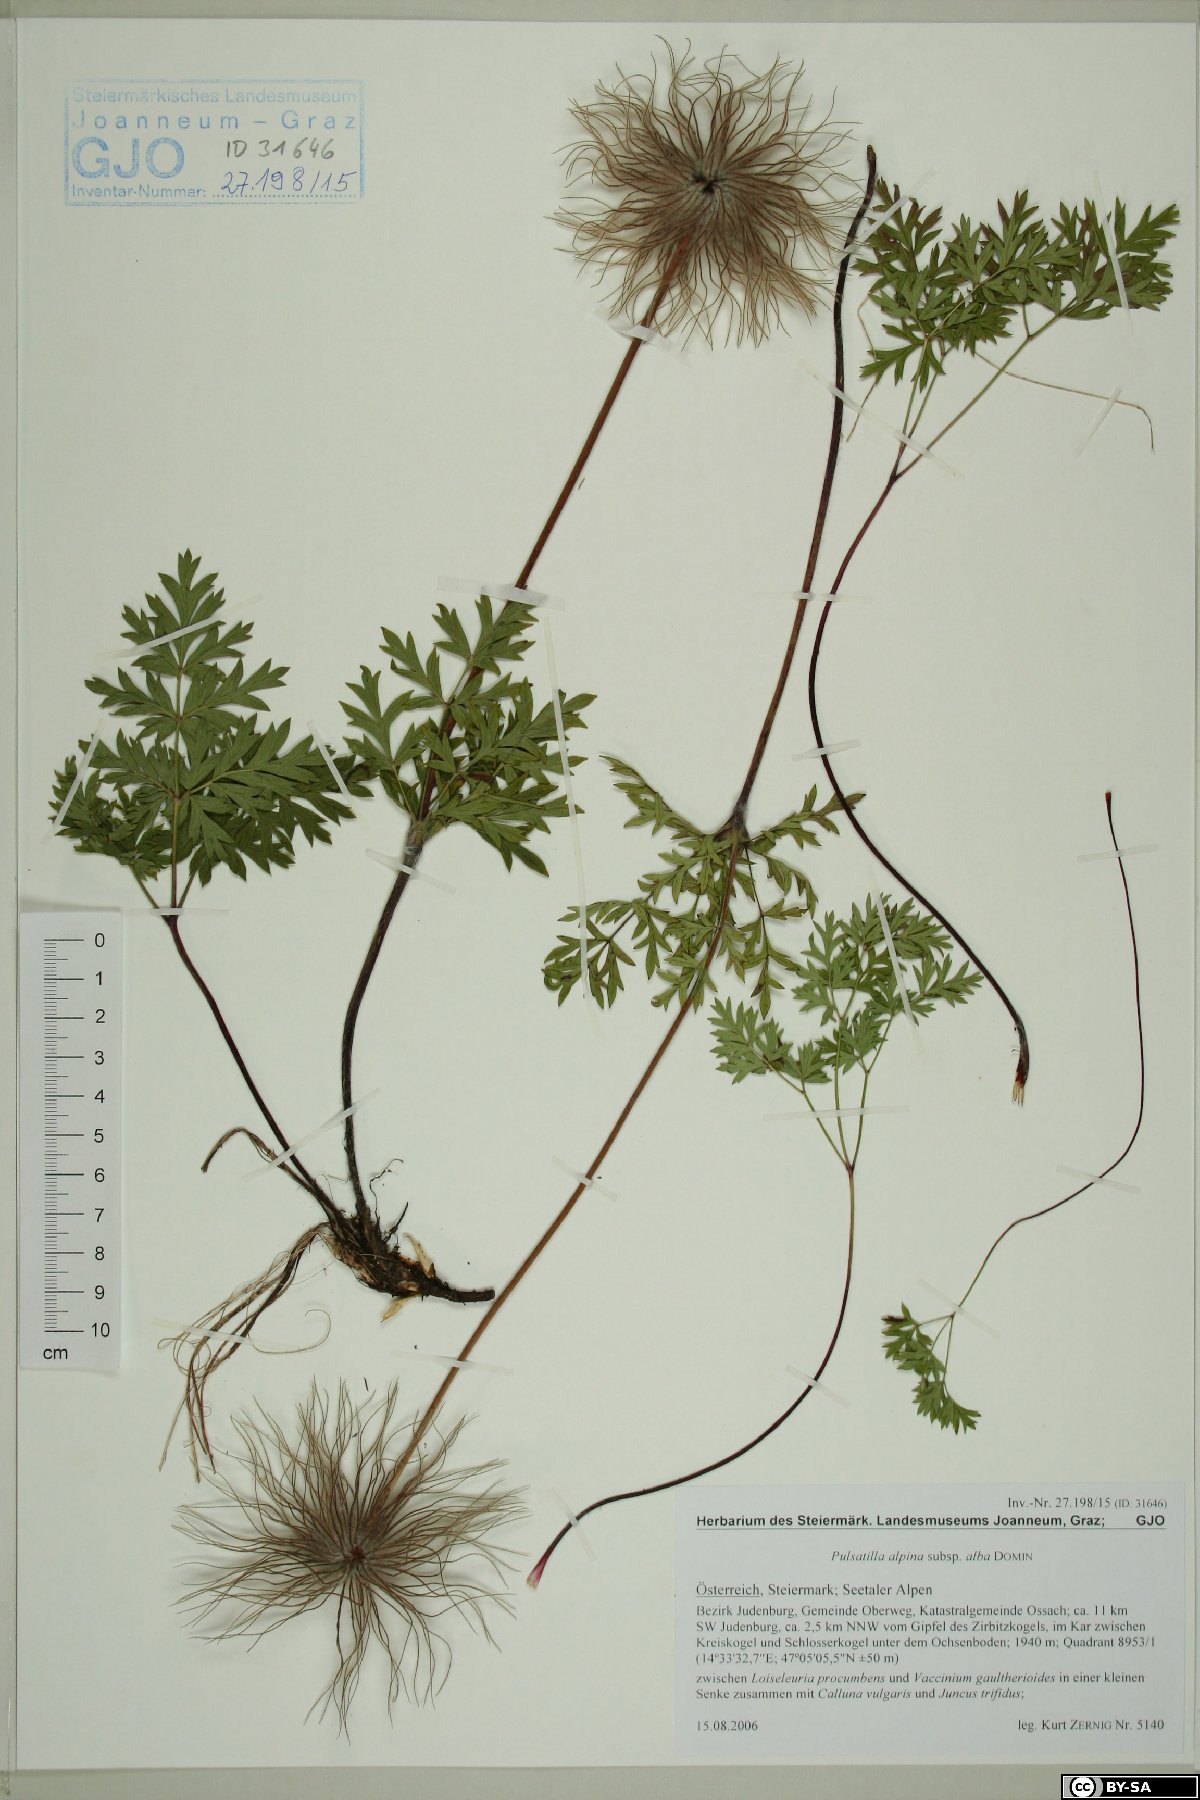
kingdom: Plantae
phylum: Tracheophyta
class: Magnoliopsida
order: Ranunculales
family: Ranunculaceae
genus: Pulsatilla
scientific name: Pulsatilla alpina
